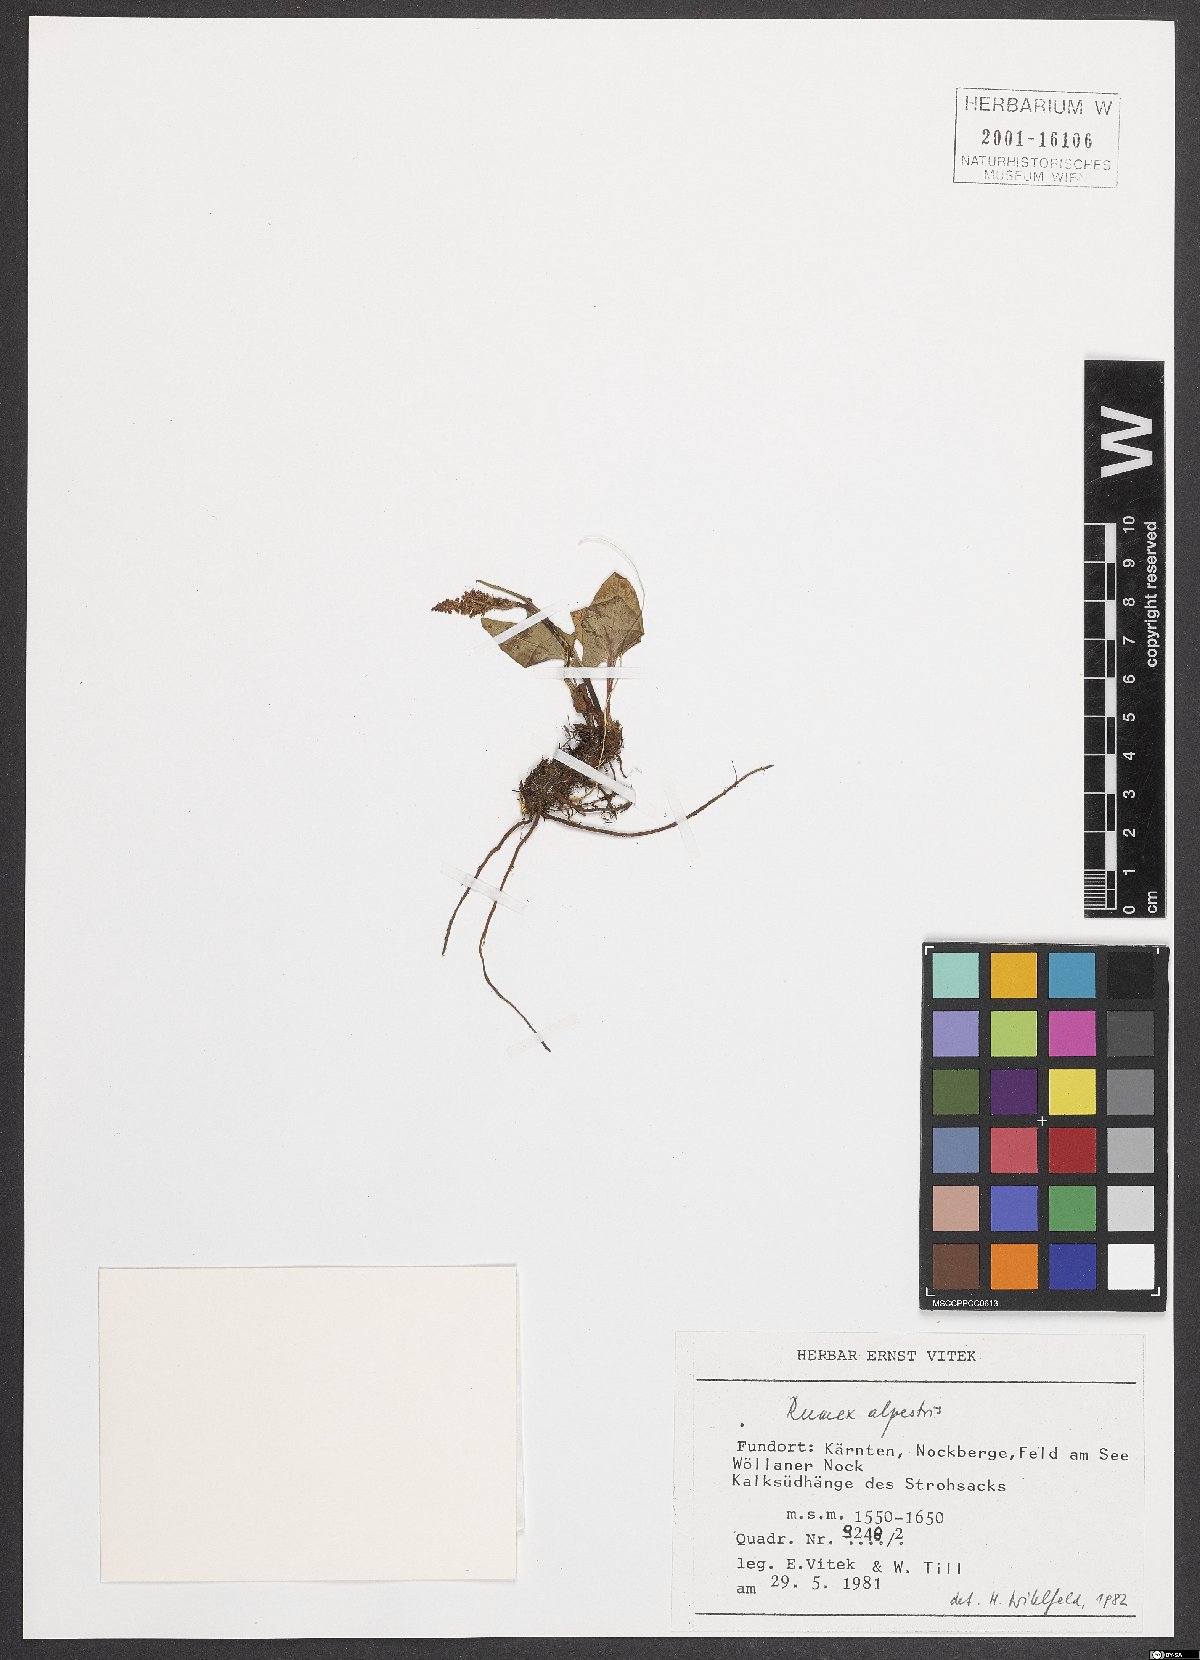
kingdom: Plantae
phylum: Tracheophyta
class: Magnoliopsida
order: Caryophyllales
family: Polygonaceae
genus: Rumex
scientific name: Rumex scutatus
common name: French sorrel
